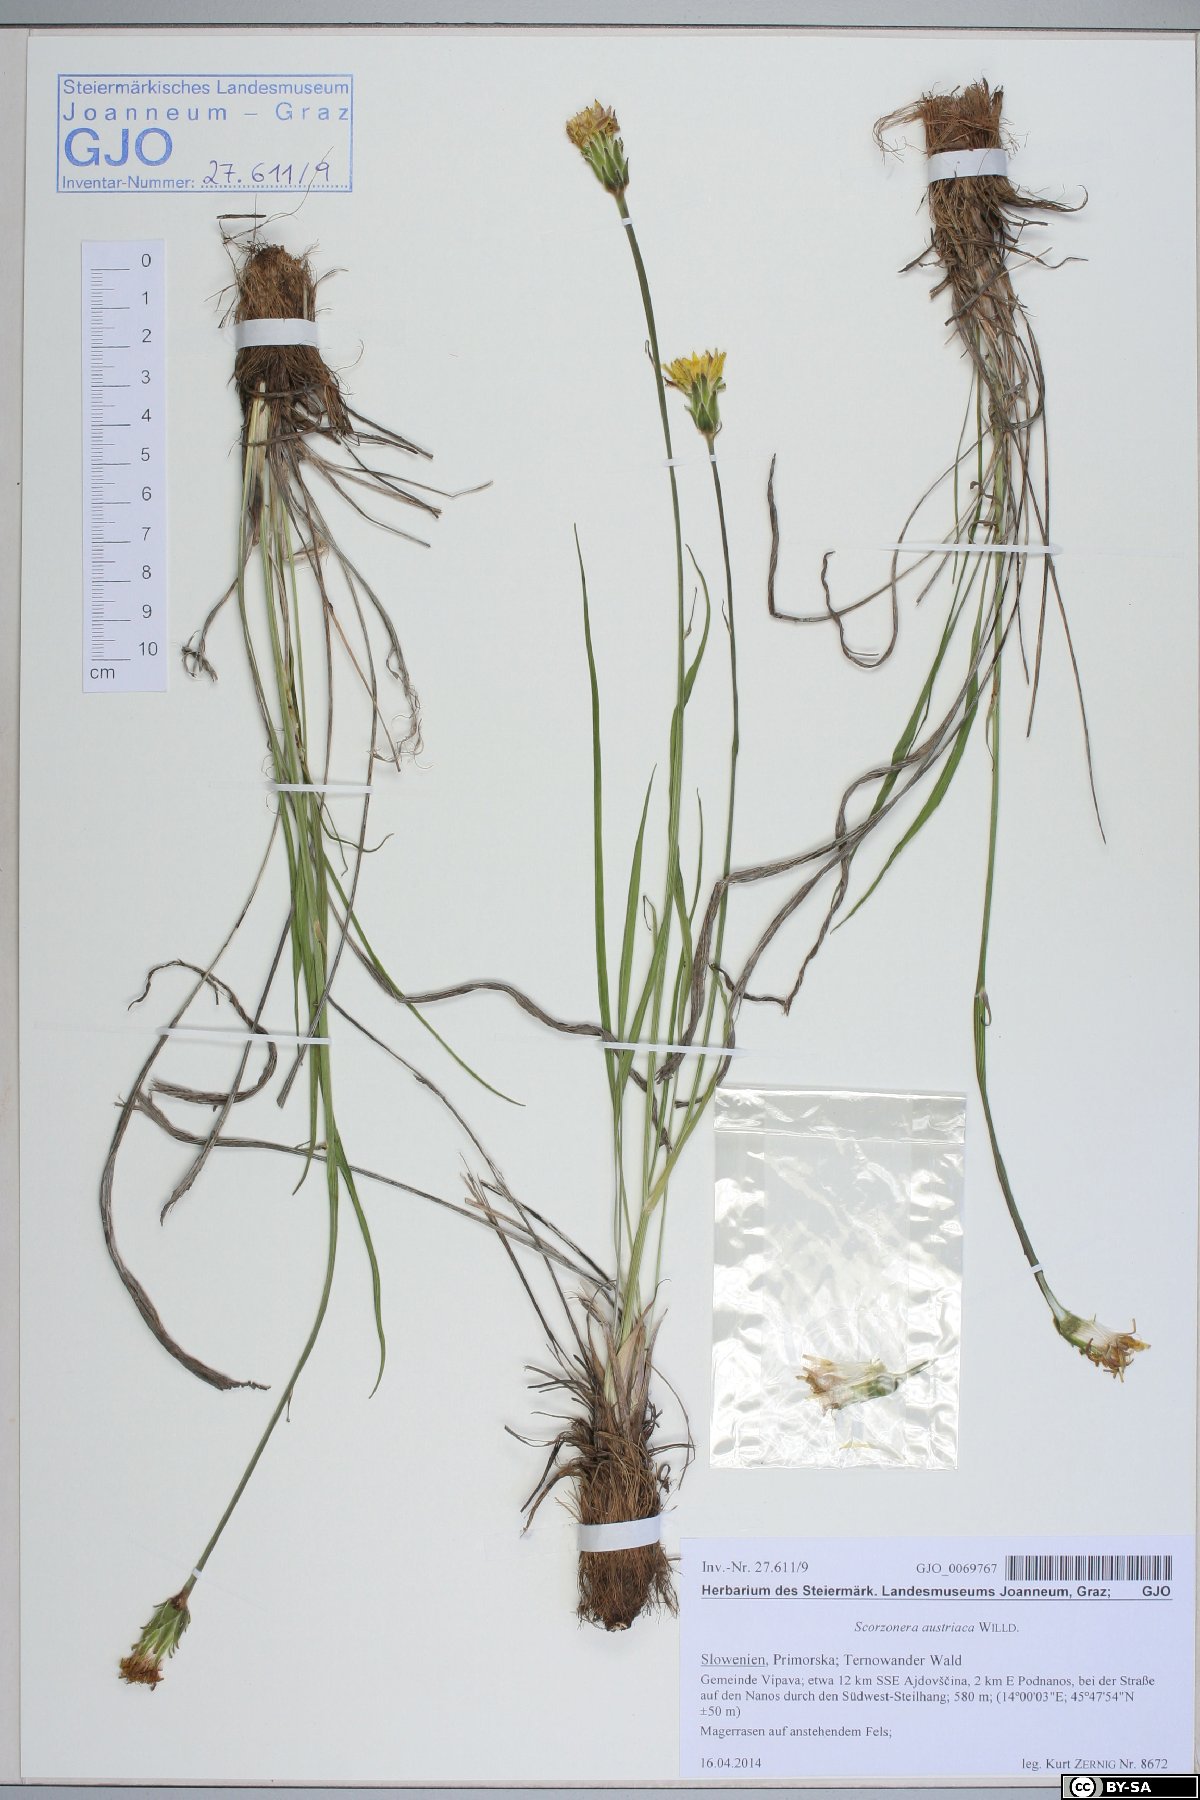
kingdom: Plantae
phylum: Tracheophyta
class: Magnoliopsida
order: Asterales
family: Asteraceae
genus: Takhtajaniantha
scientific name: Takhtajaniantha austriaca
